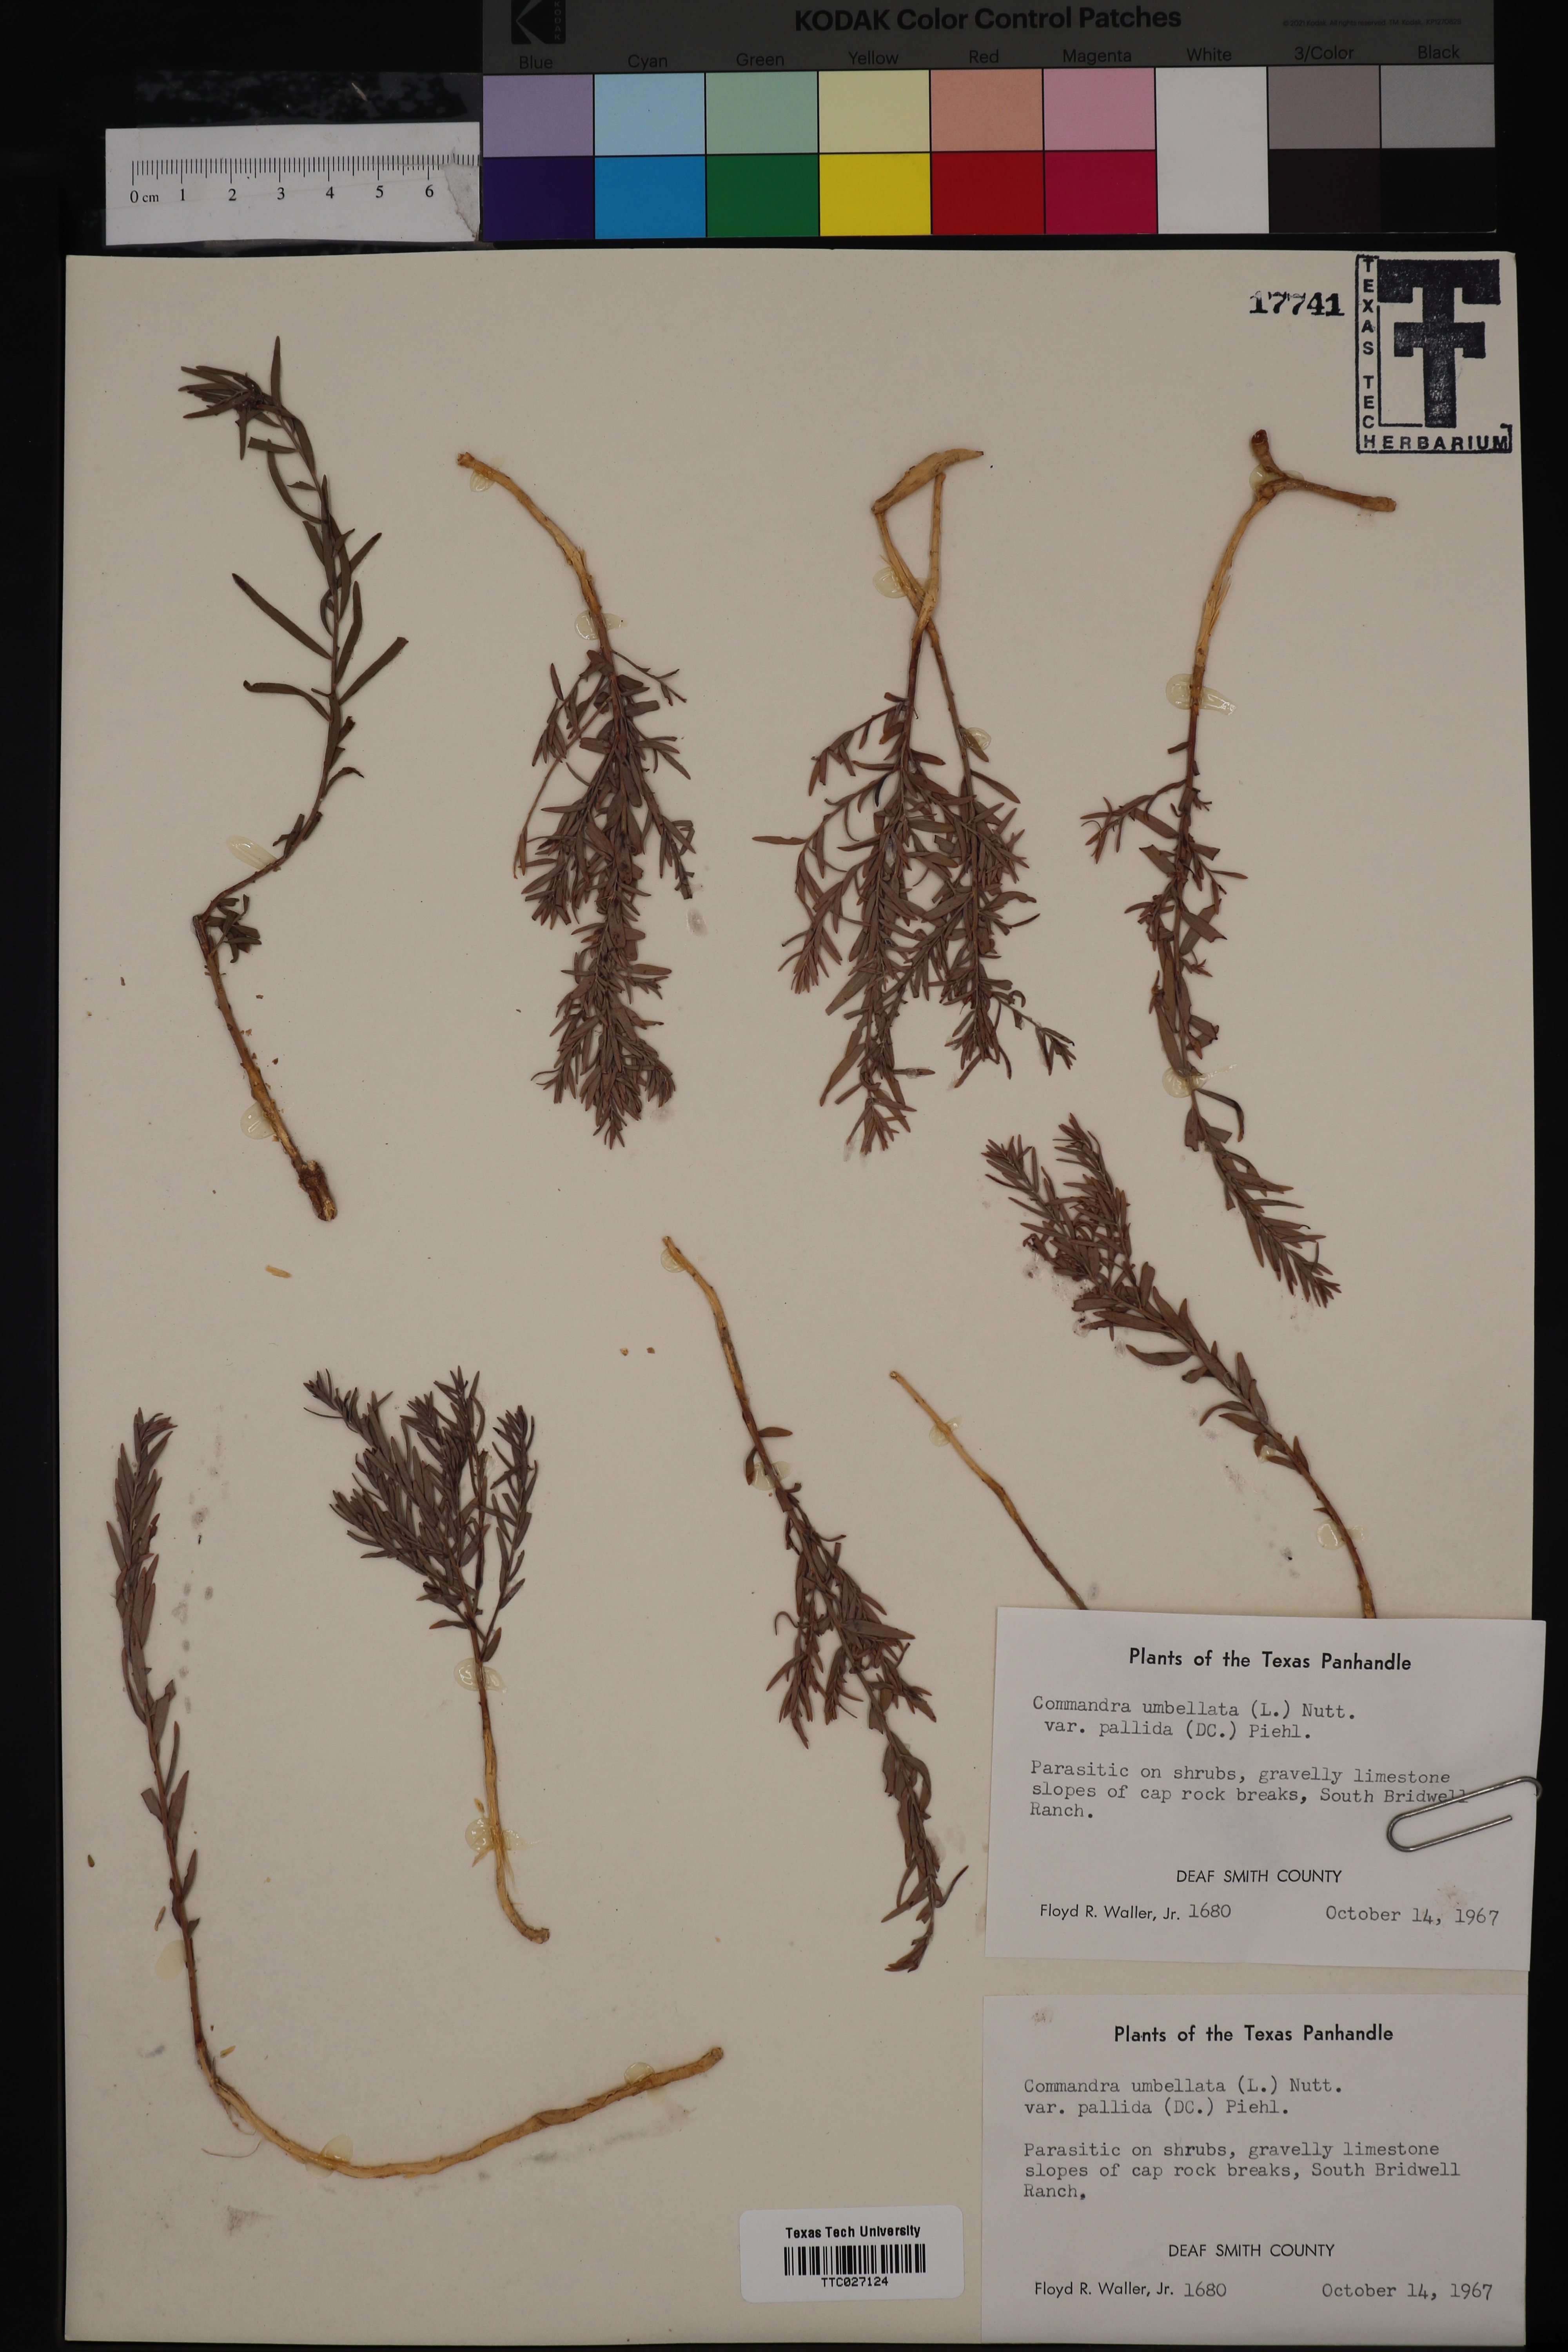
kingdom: Plantae
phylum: Tracheophyta
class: Magnoliopsida
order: Santalales
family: Comandraceae
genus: Comandra
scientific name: Comandra umbellata
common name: Bastard toadflax
